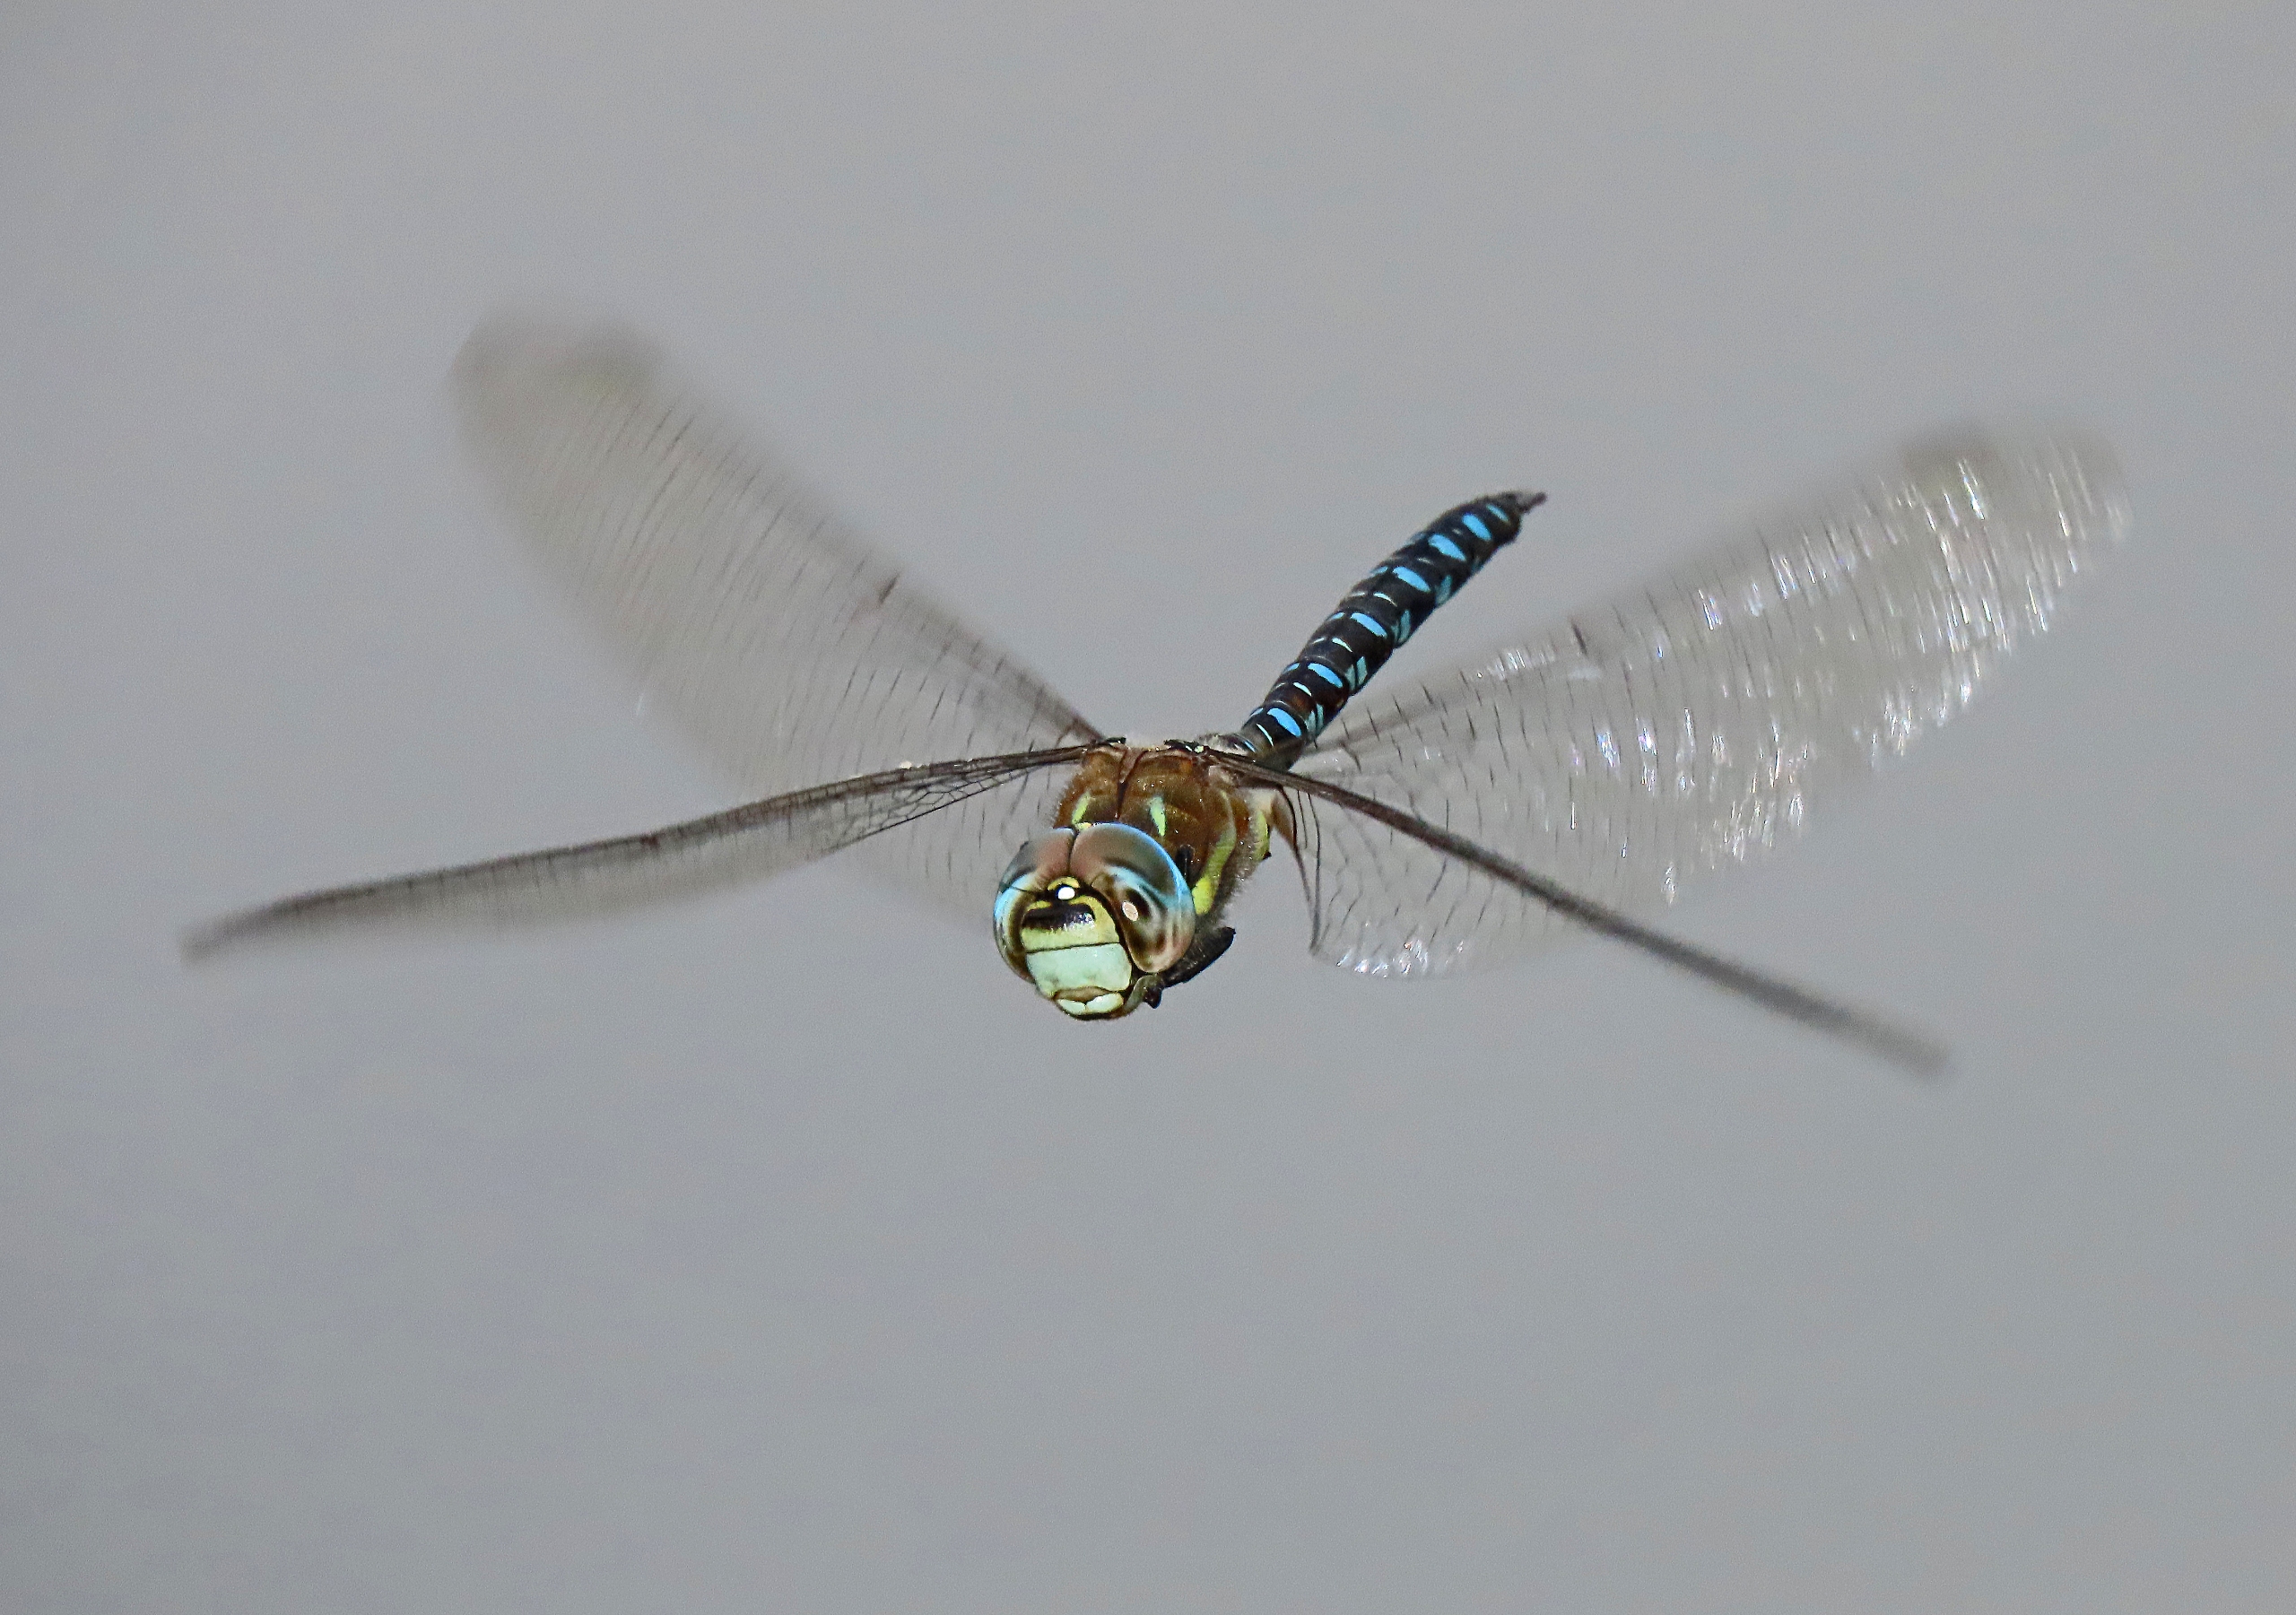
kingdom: Animalia
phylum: Arthropoda
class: Insecta
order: Odonata
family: Aeshnidae
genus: Aeshna
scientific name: Aeshna mixta
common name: Efterårs-mosaikguldsmed
